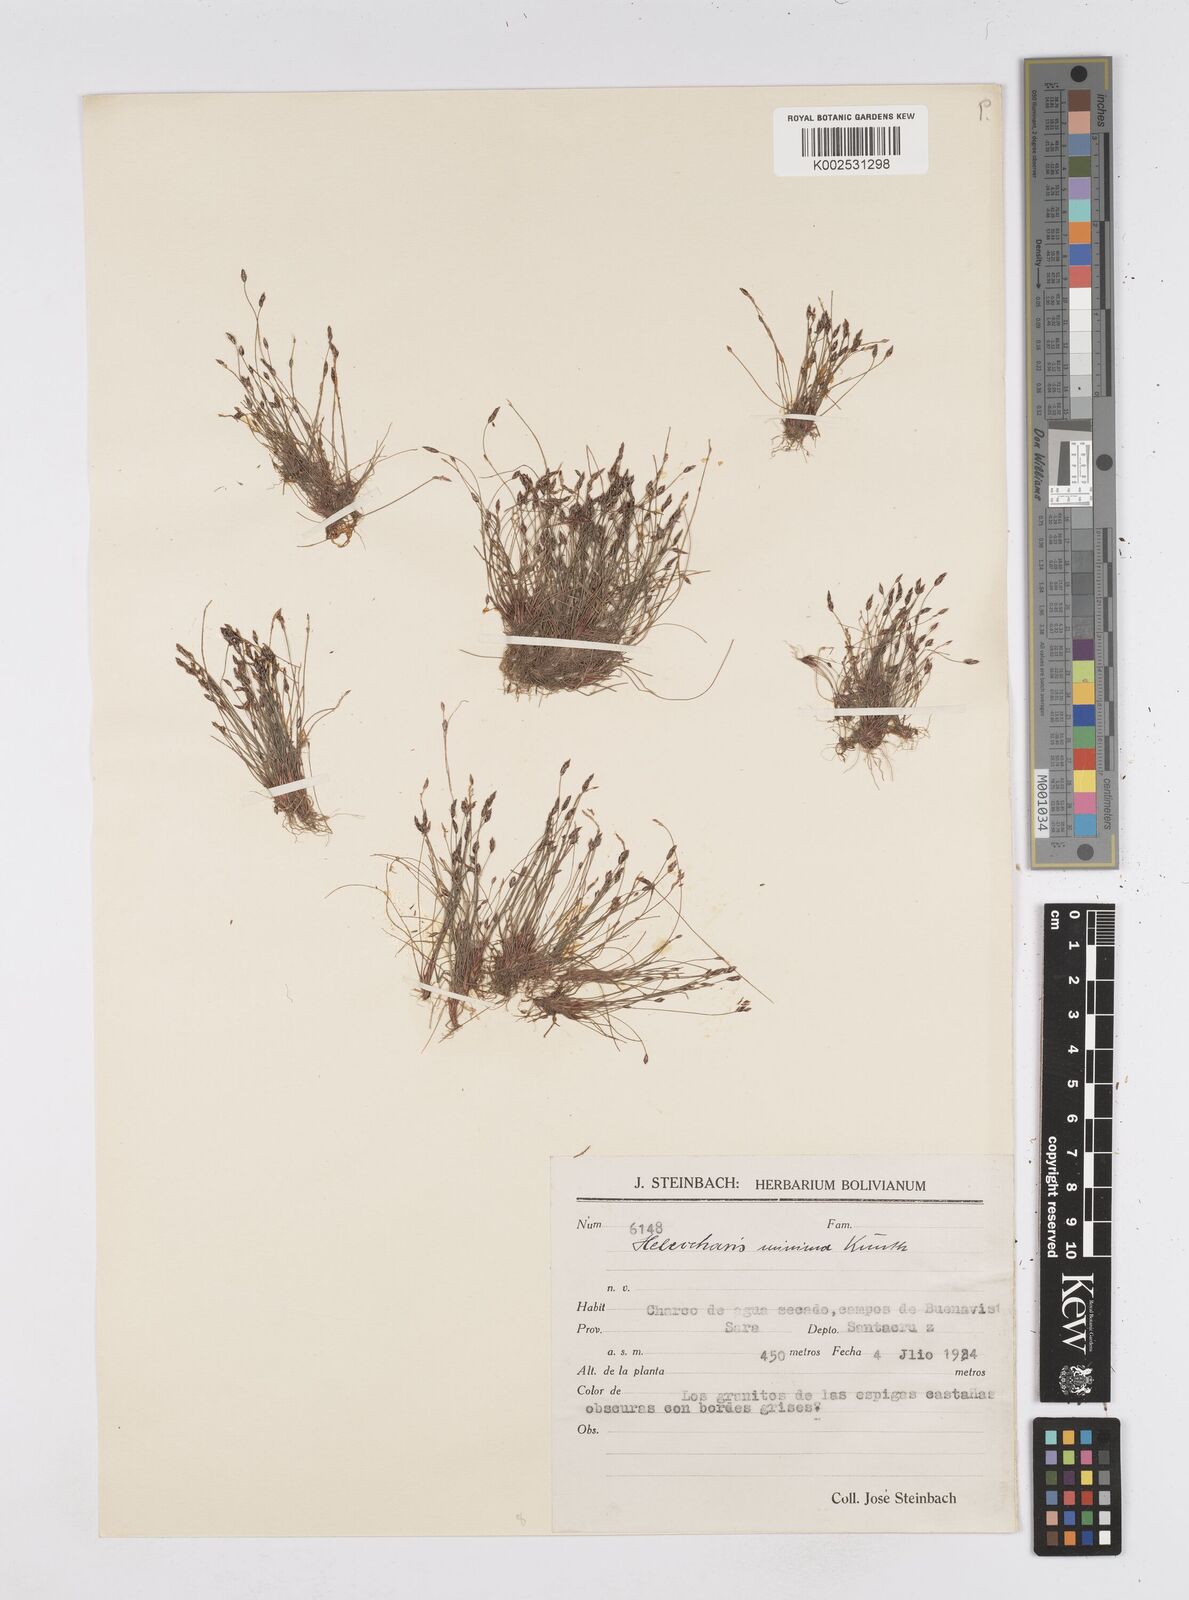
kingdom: Plantae
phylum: Tracheophyta
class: Liliopsida
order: Poales
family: Cyperaceae
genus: Eleocharis
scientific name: Eleocharis minima
